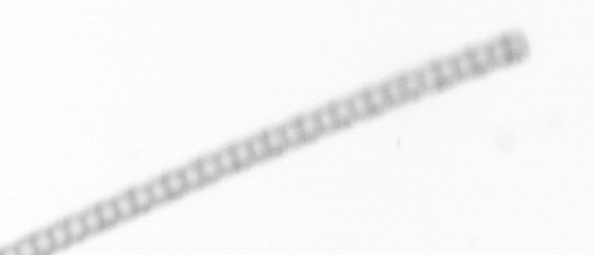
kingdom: Chromista
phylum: Ochrophyta
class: Bacillariophyceae
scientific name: Bacillariophyceae
